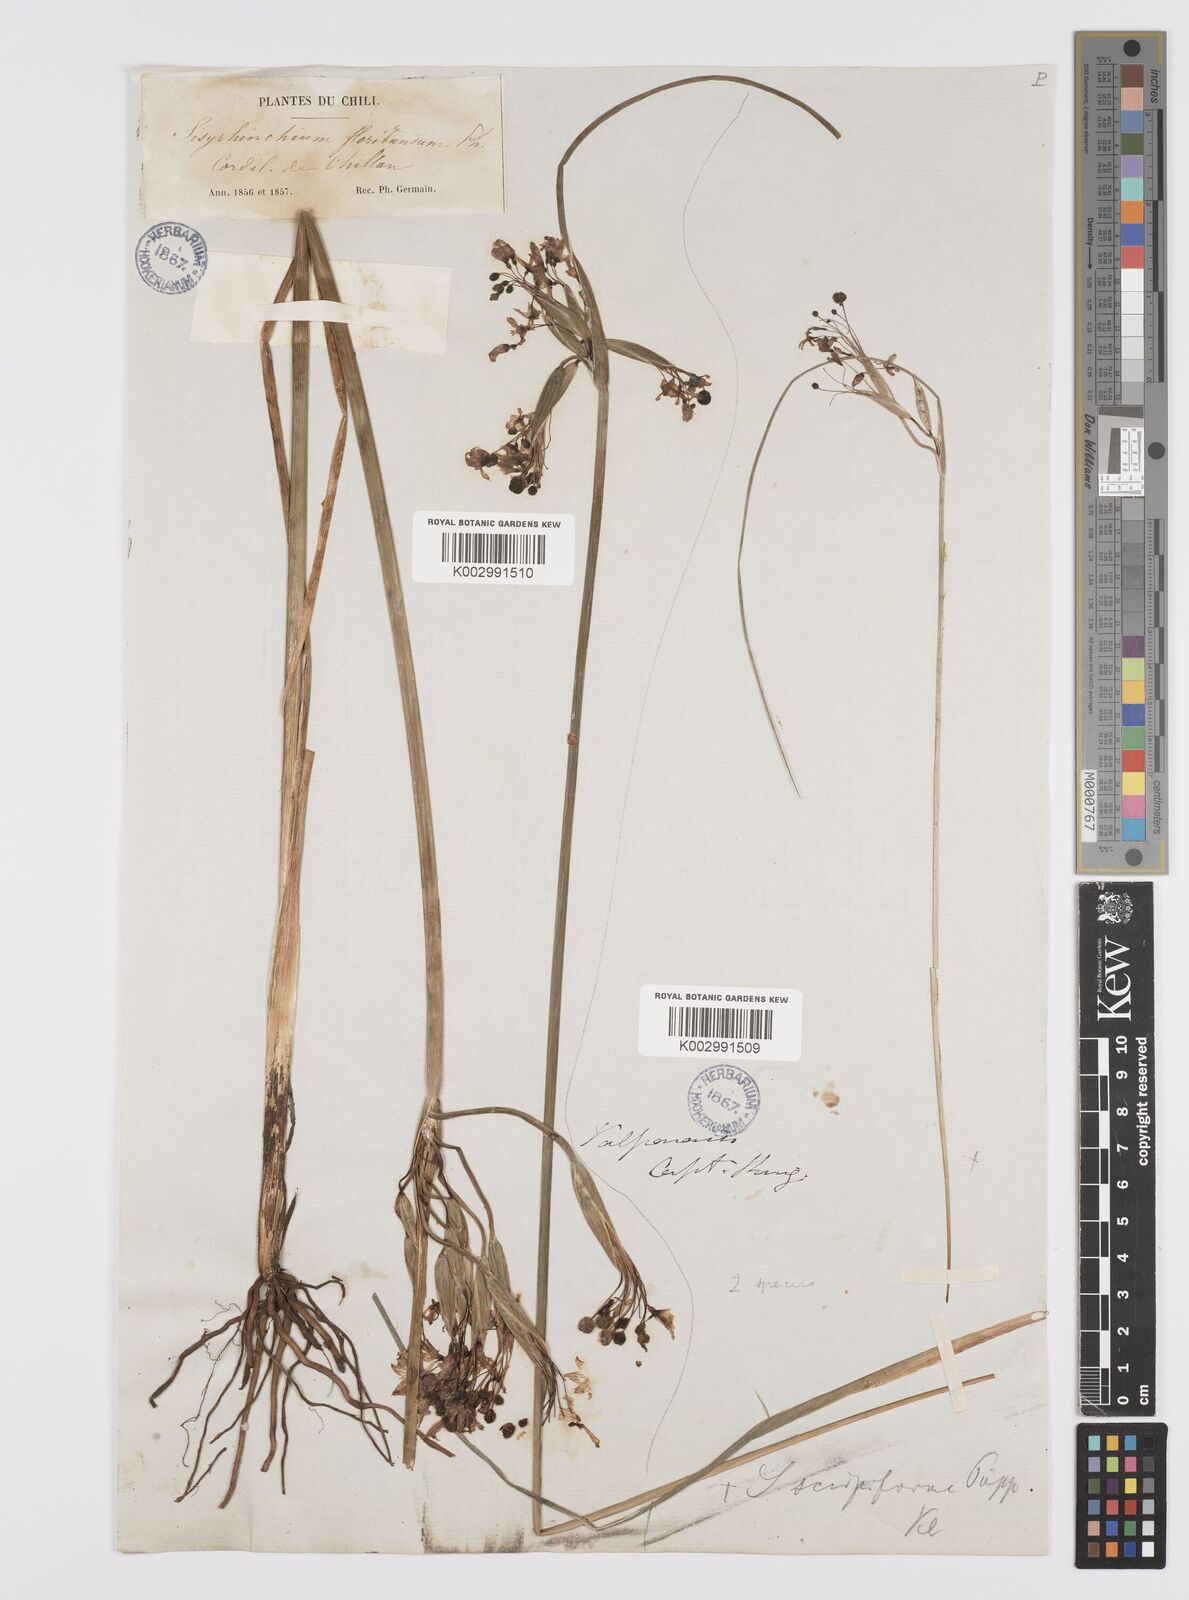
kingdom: Plantae
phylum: Tracheophyta
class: Liliopsida
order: Asparagales
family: Iridaceae
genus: Olsynium
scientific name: Olsynium junceum
